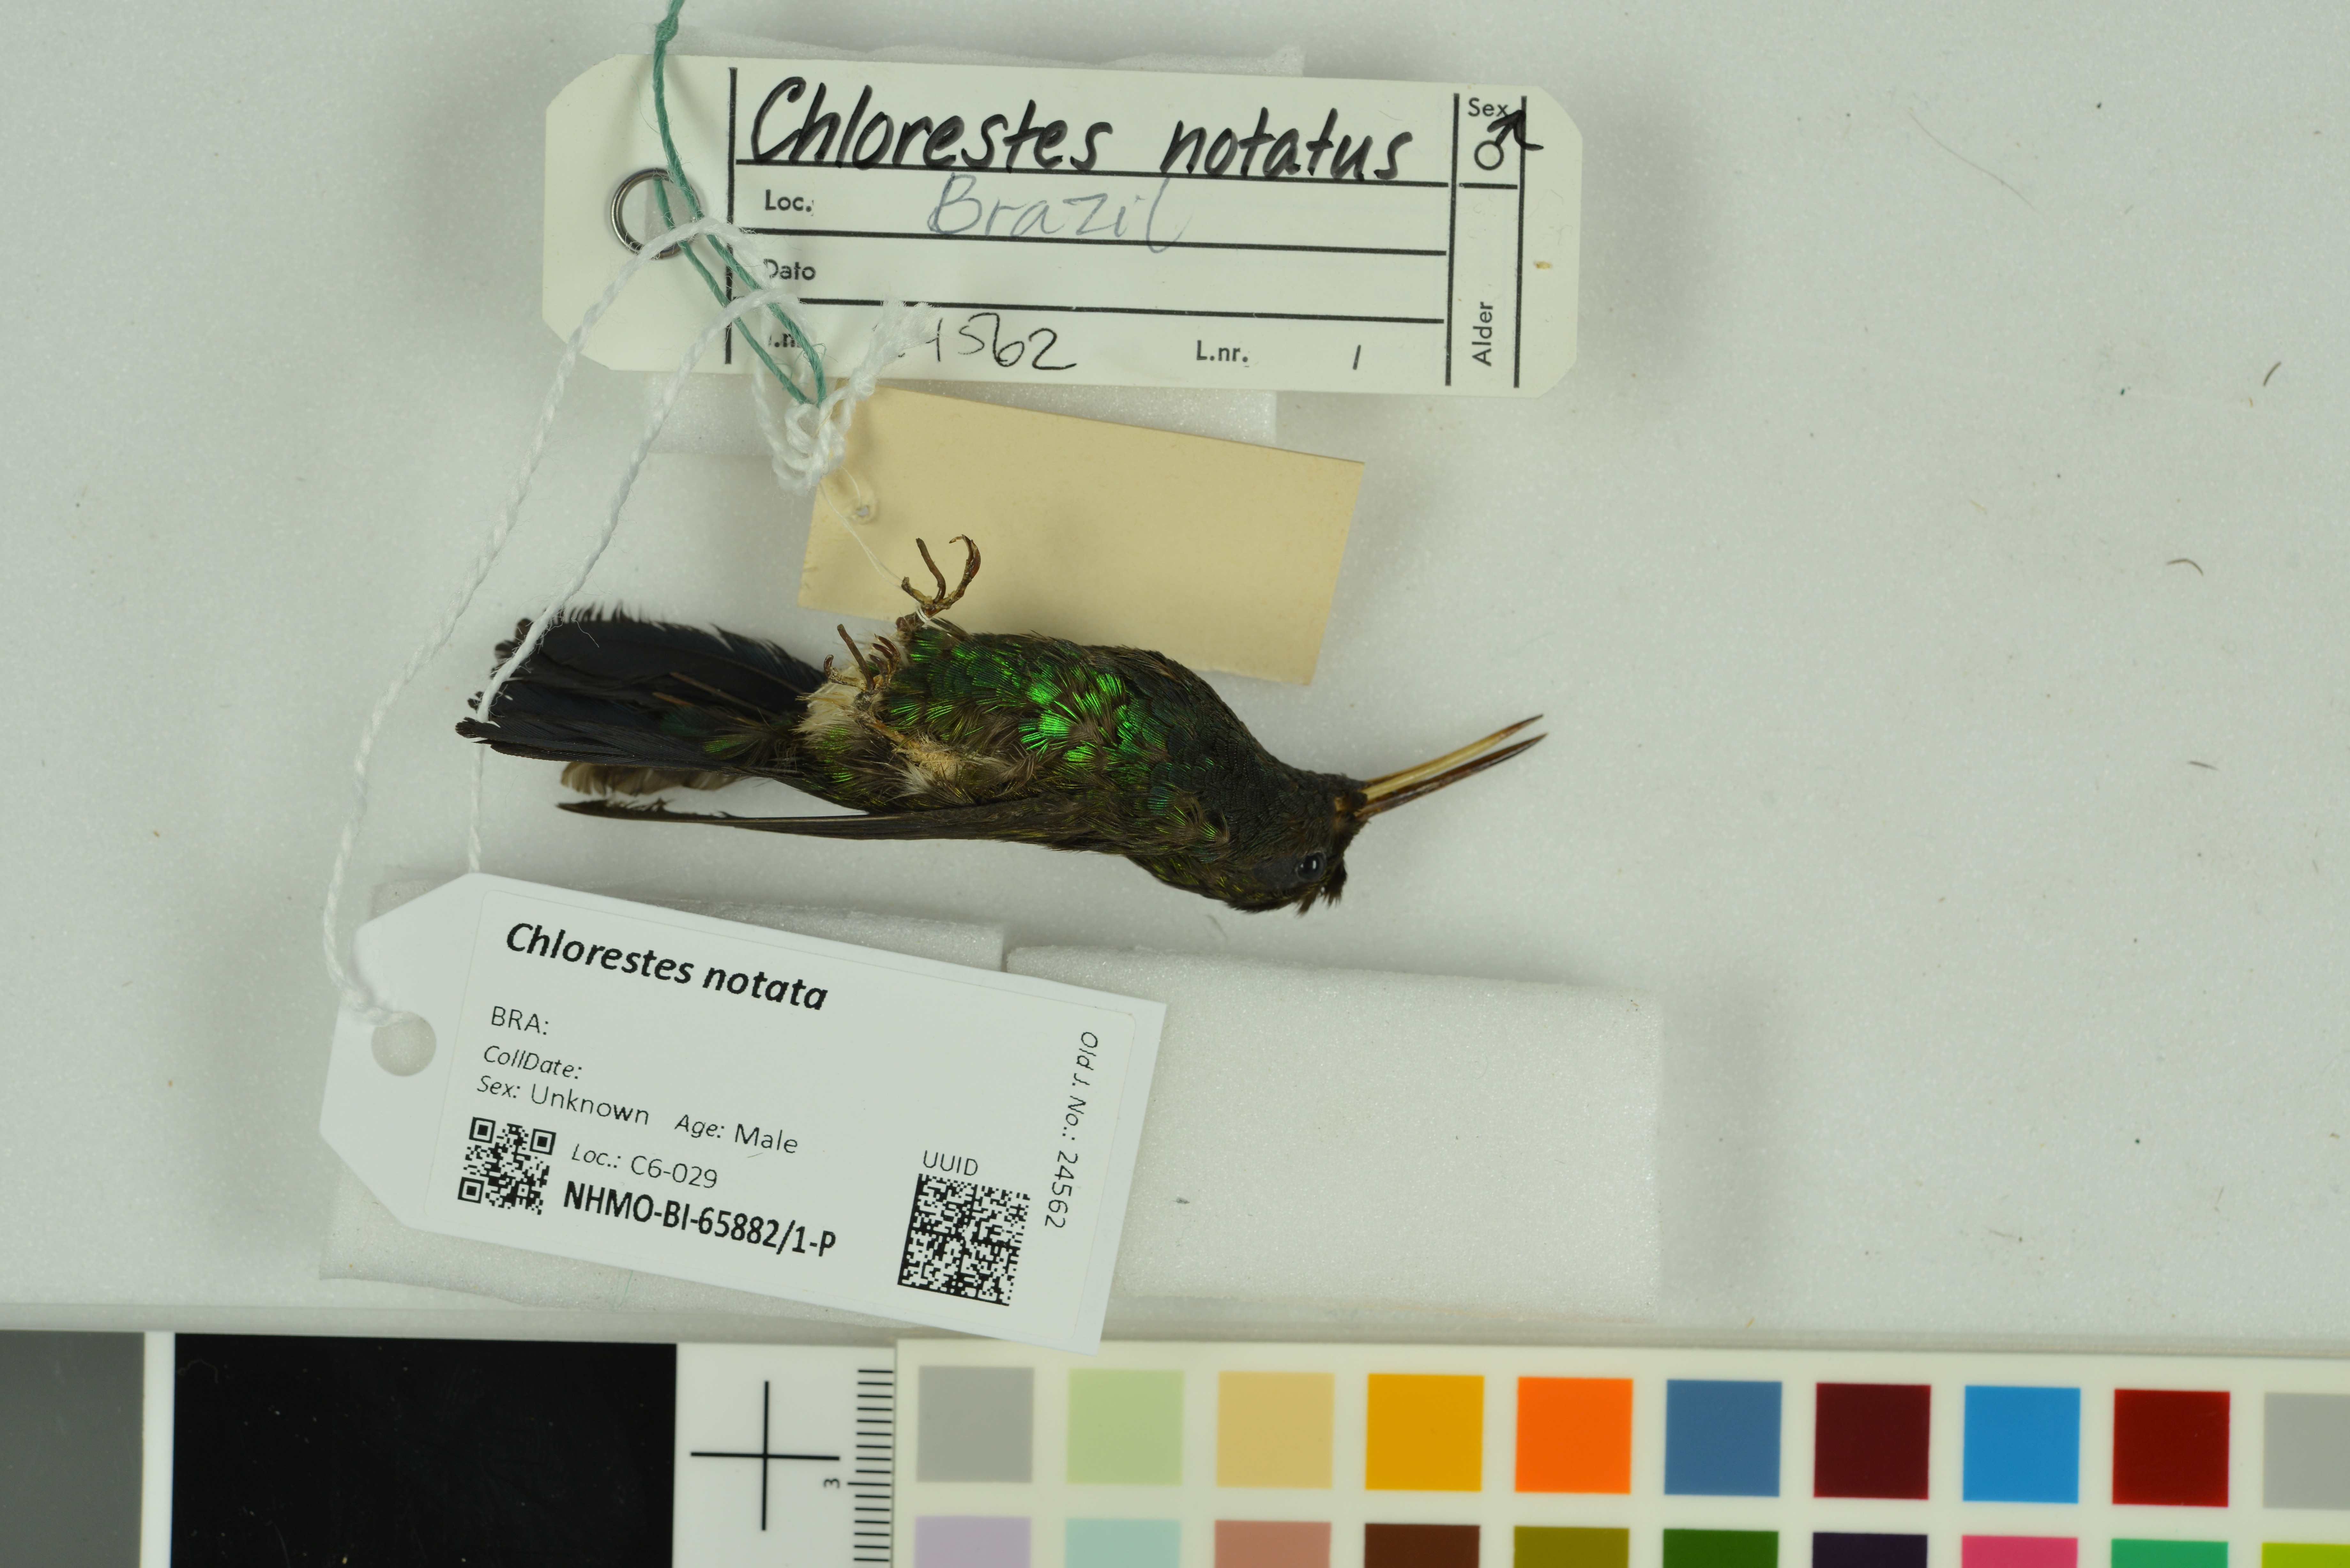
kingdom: Animalia
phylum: Chordata
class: Aves
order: Apodiformes
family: Trochilidae
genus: Chlorestes
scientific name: Chlorestes notata
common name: Blue-chinned sapphire
